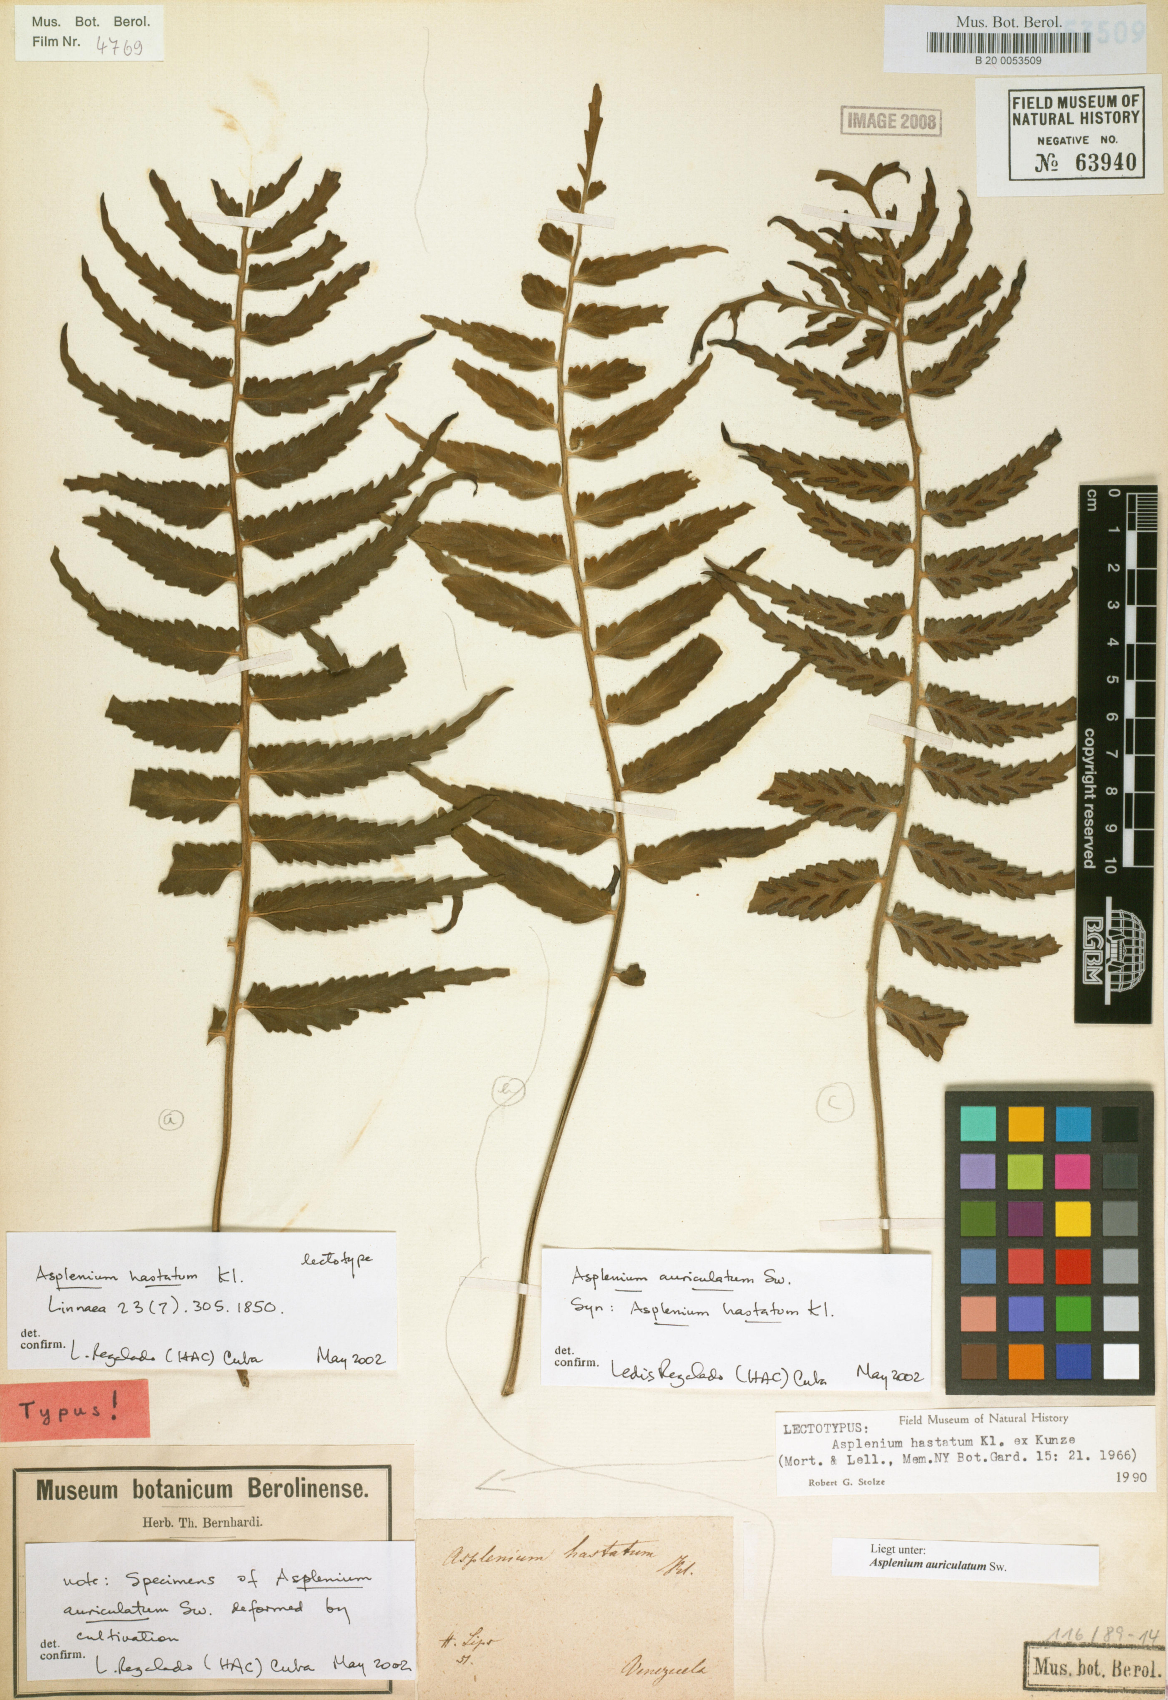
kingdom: Plantae
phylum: Tracheophyta
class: Polypodiopsida
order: Polypodiales
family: Aspleniaceae
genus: Asplenium
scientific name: Asplenium hastatum
